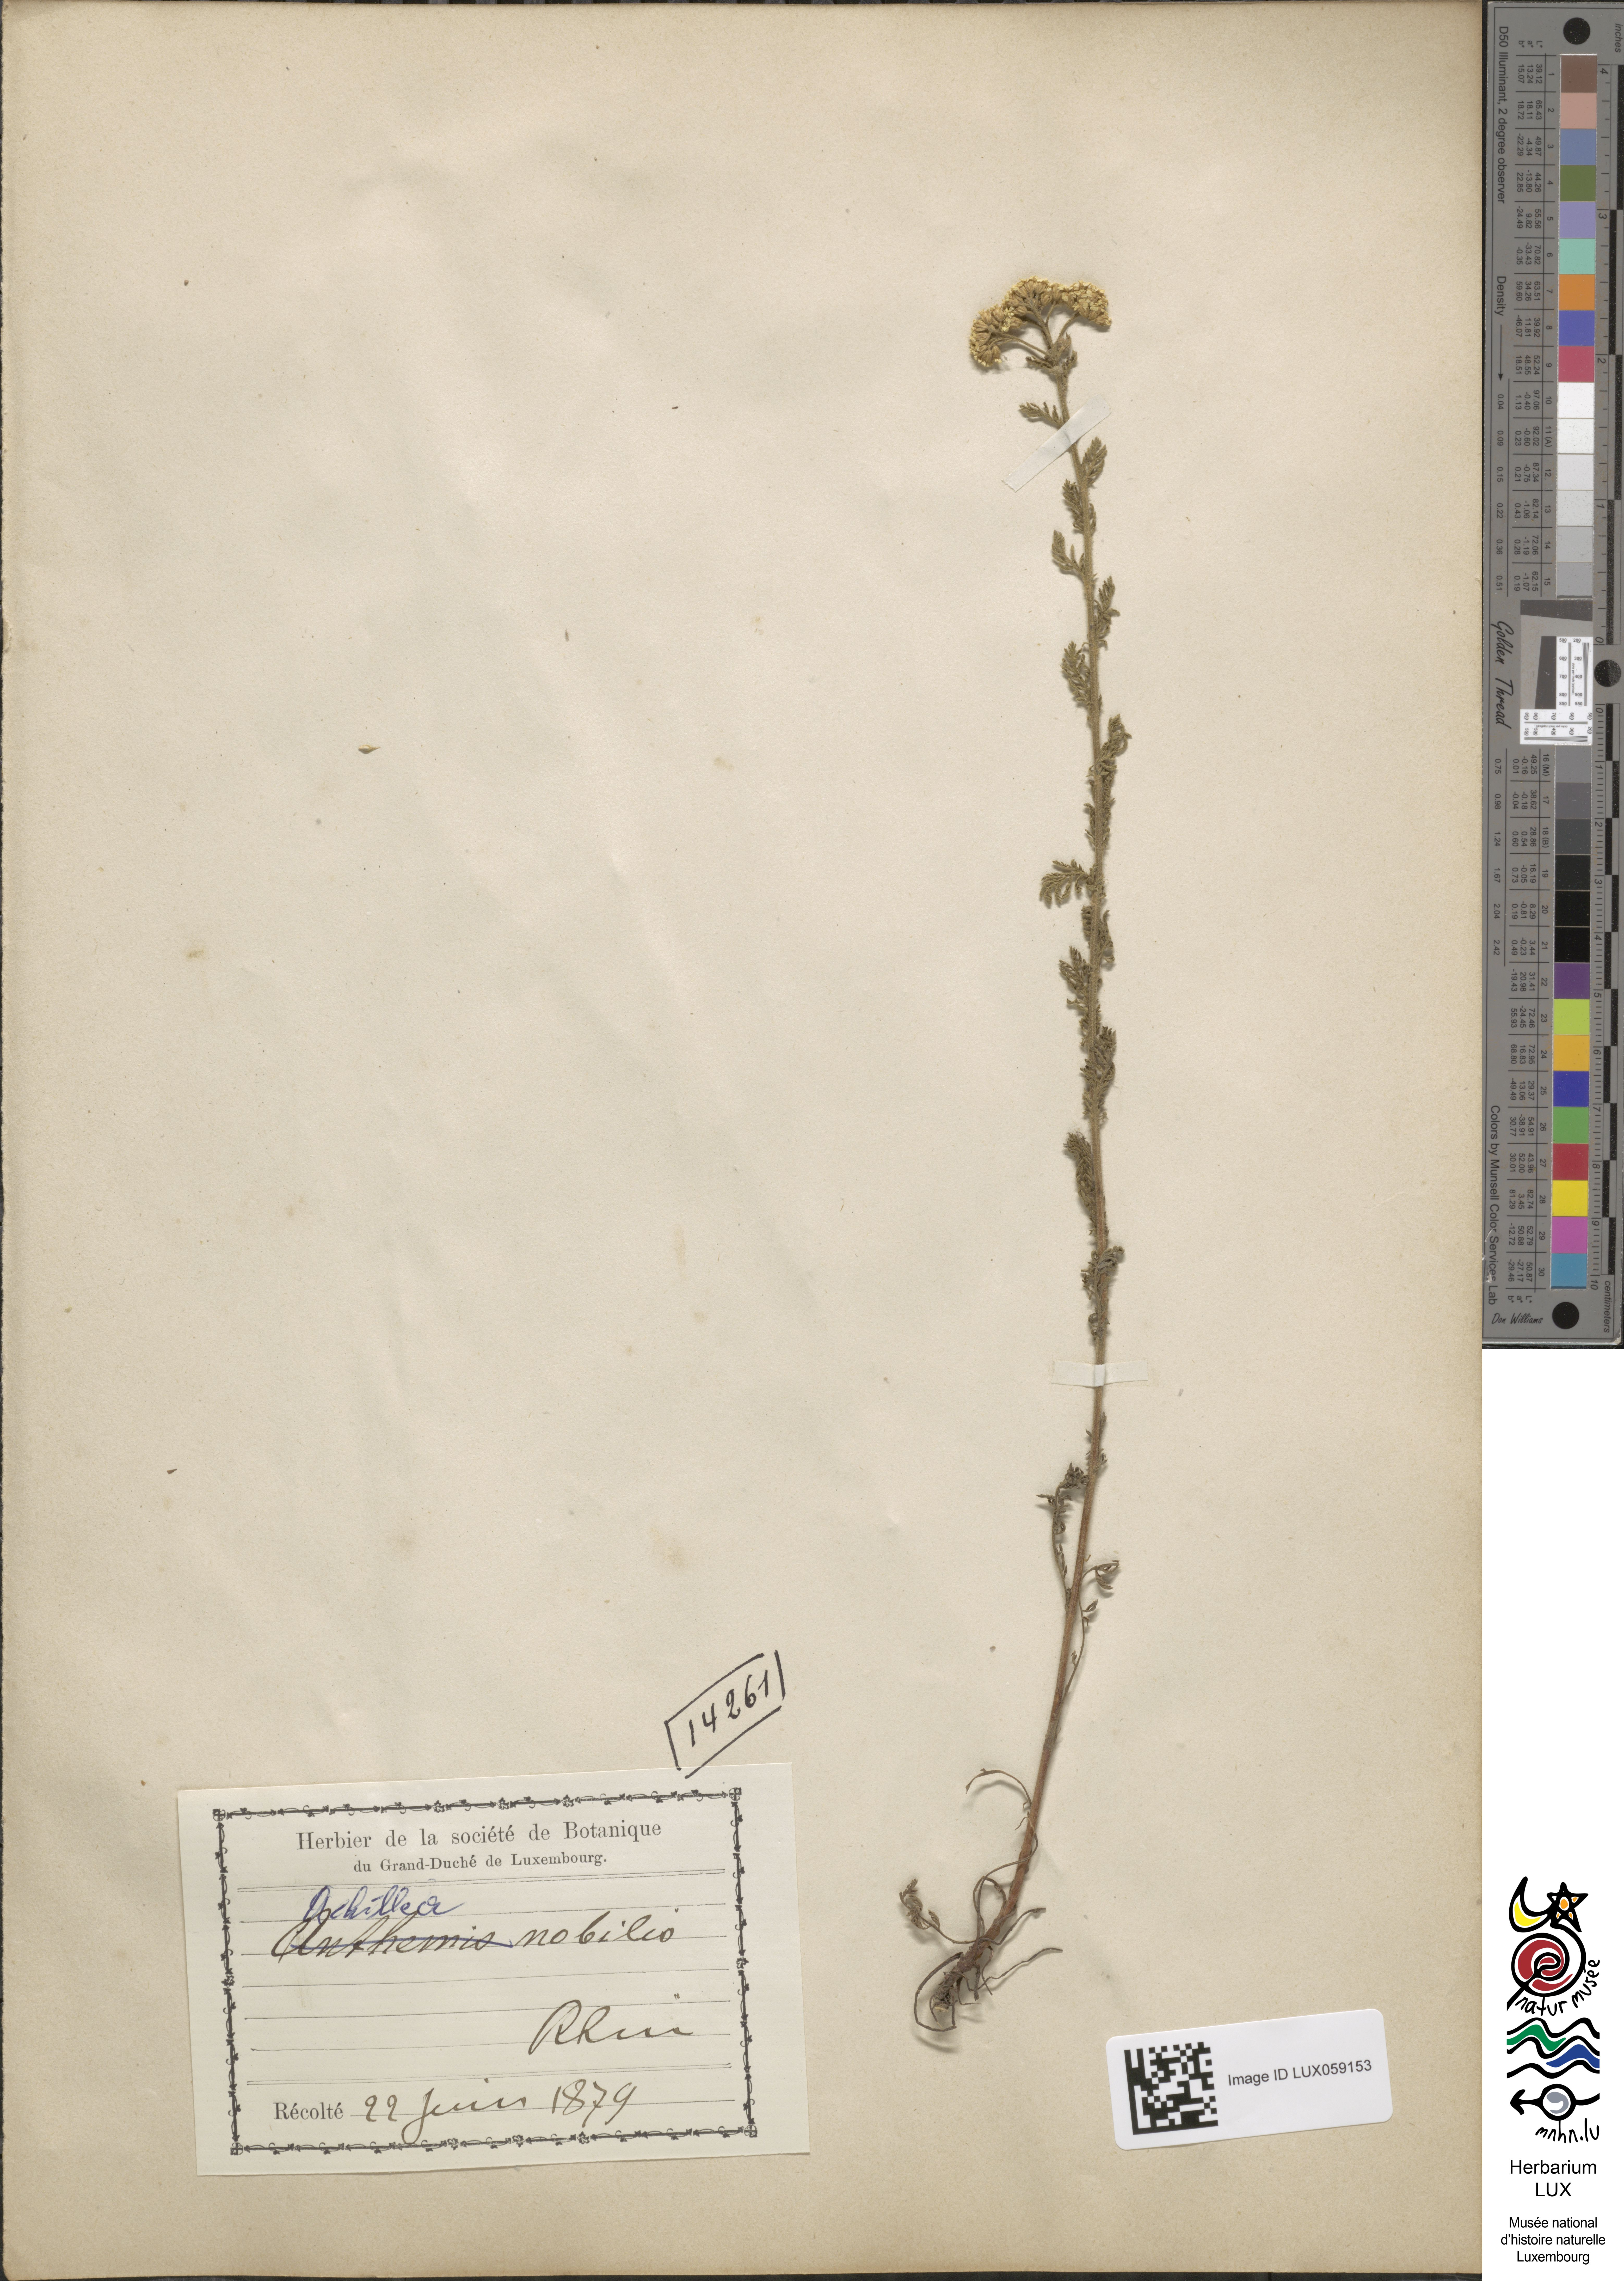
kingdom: Plantae
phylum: Tracheophyta
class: Magnoliopsida
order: Asterales
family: Asteraceae
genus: Achillea
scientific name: Achillea nobilis
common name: Noble yarrow
